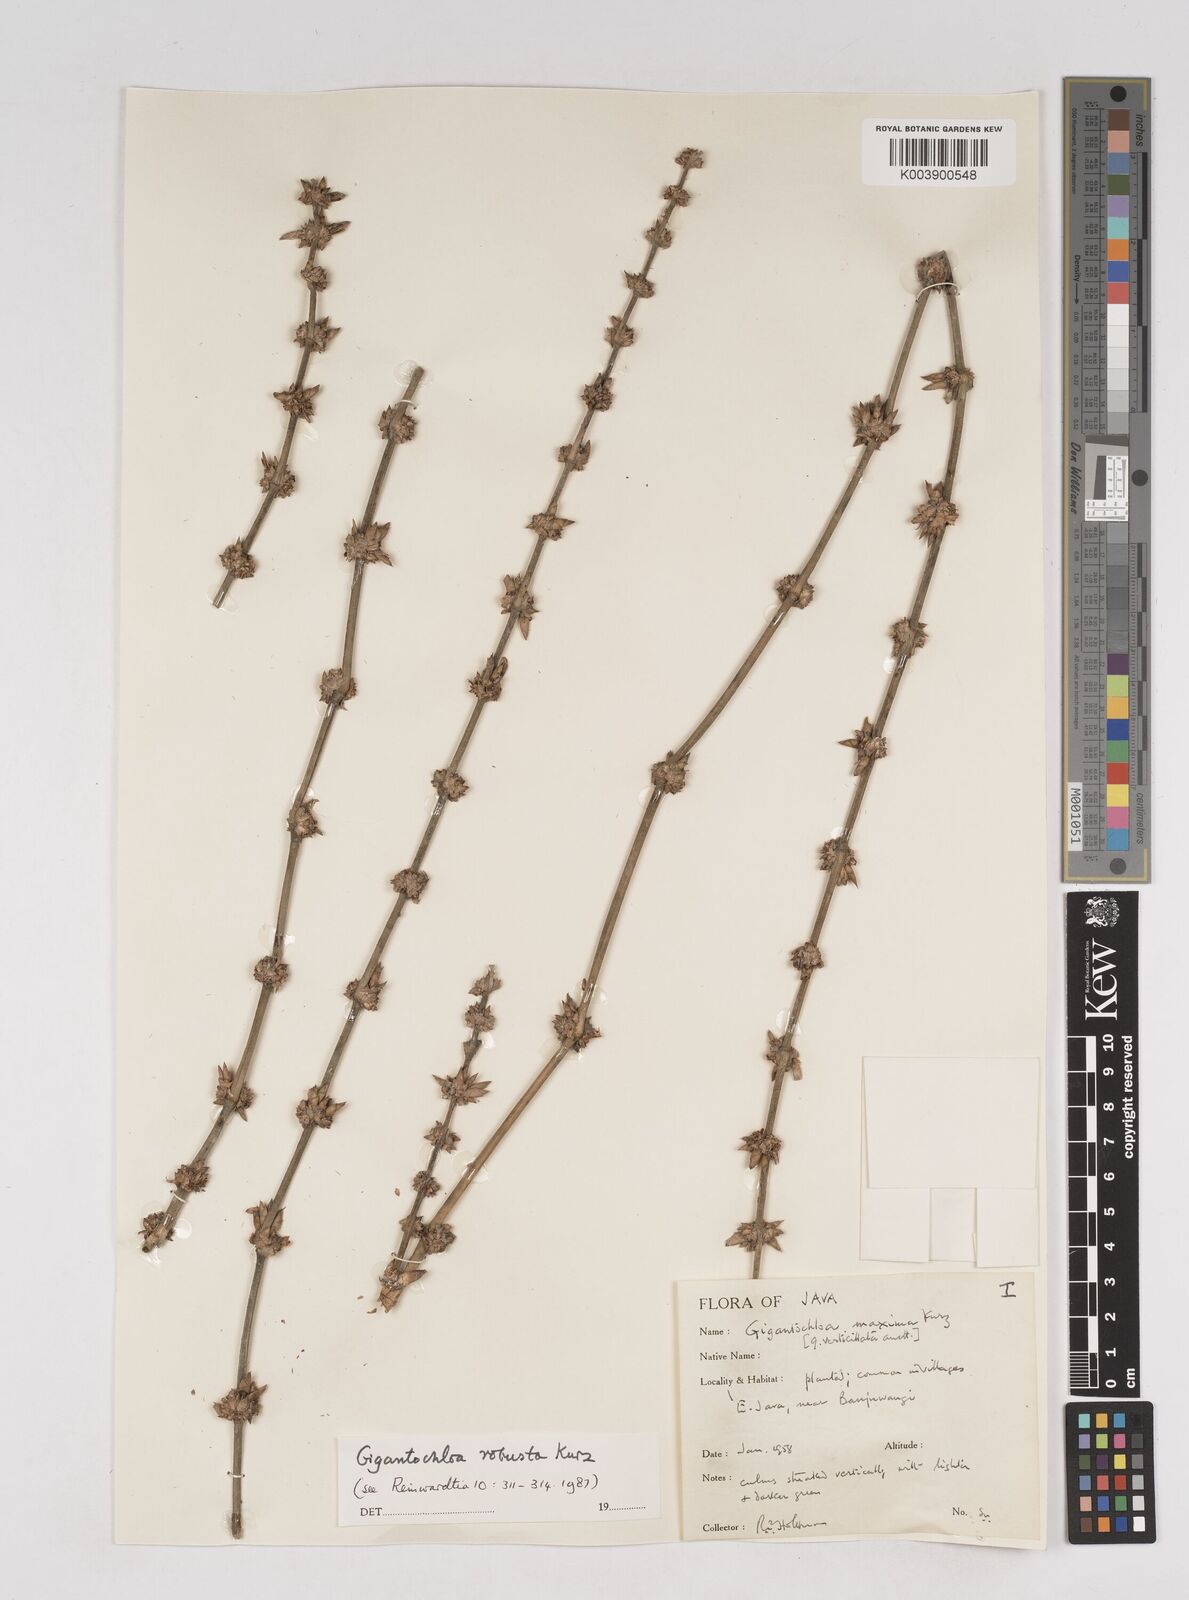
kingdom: Plantae
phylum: Tracheophyta
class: Liliopsida
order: Poales
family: Poaceae
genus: Gigantochloa
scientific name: Gigantochloa robusta
